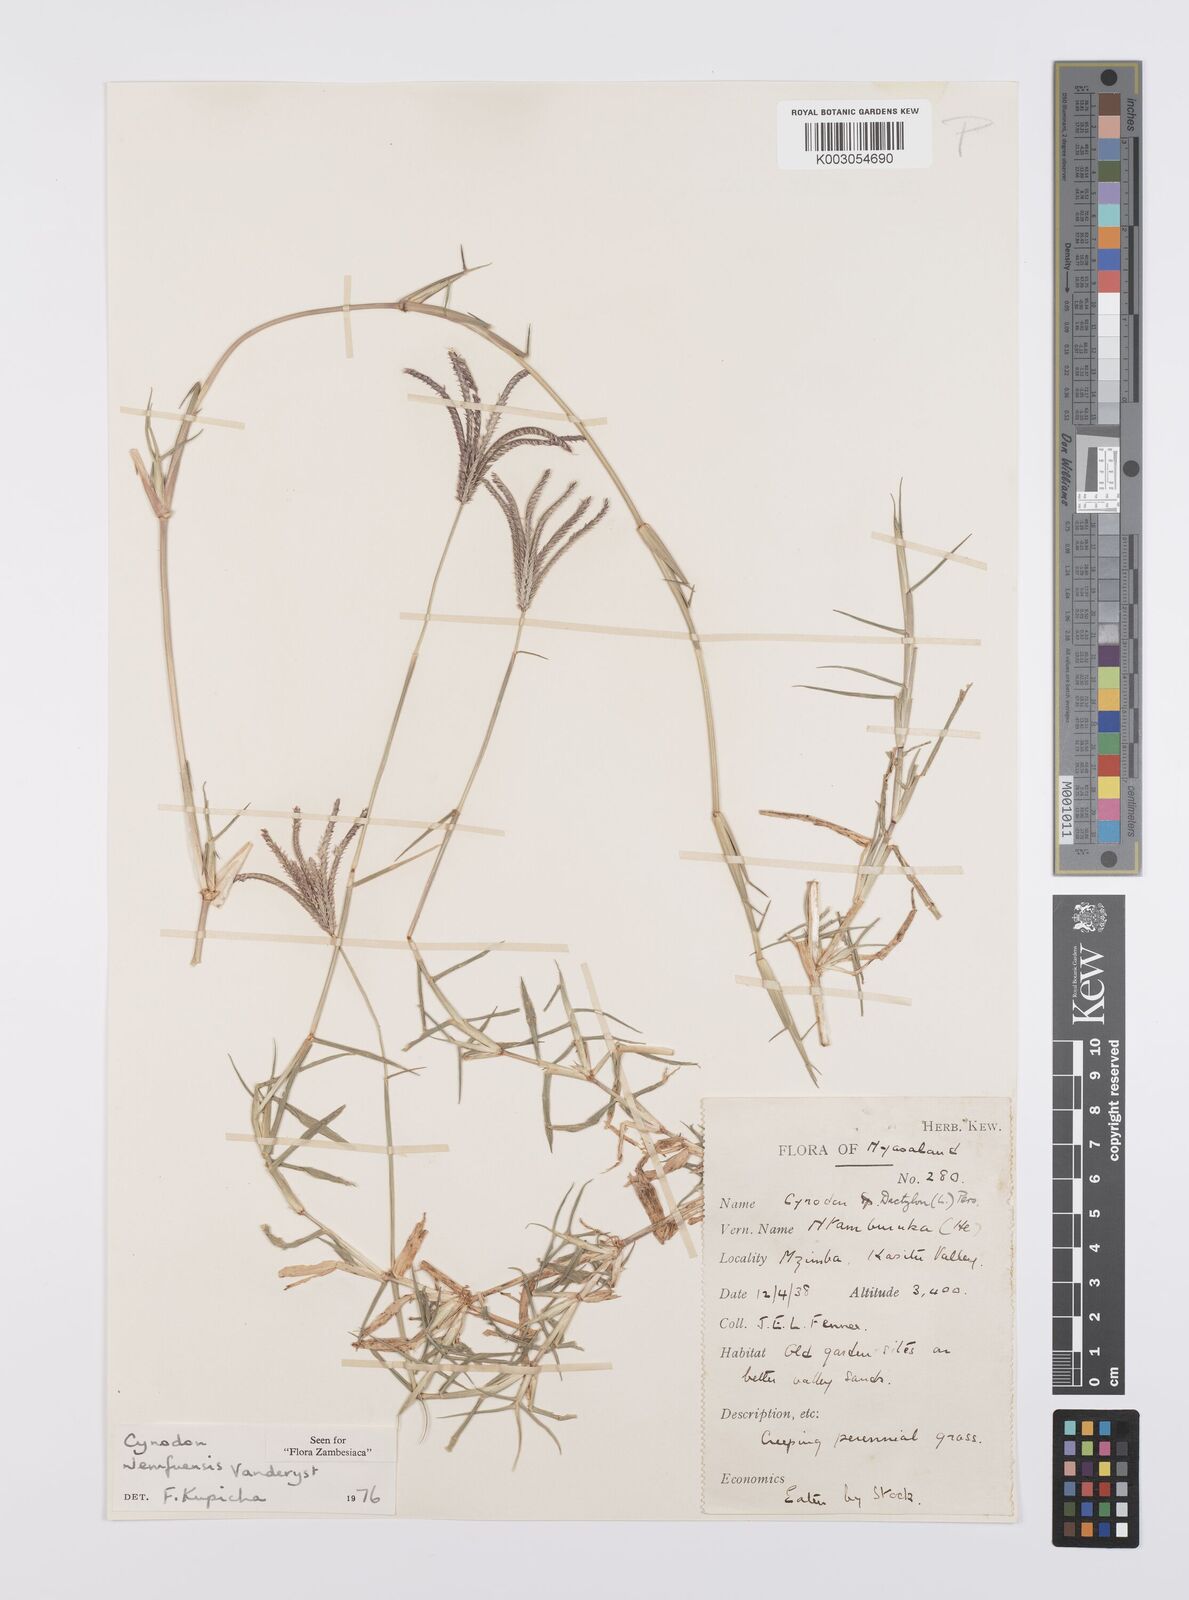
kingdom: Plantae
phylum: Tracheophyta
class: Liliopsida
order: Poales
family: Poaceae
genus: Cynodon
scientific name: Cynodon nlemfuensis
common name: African bermudagrass
